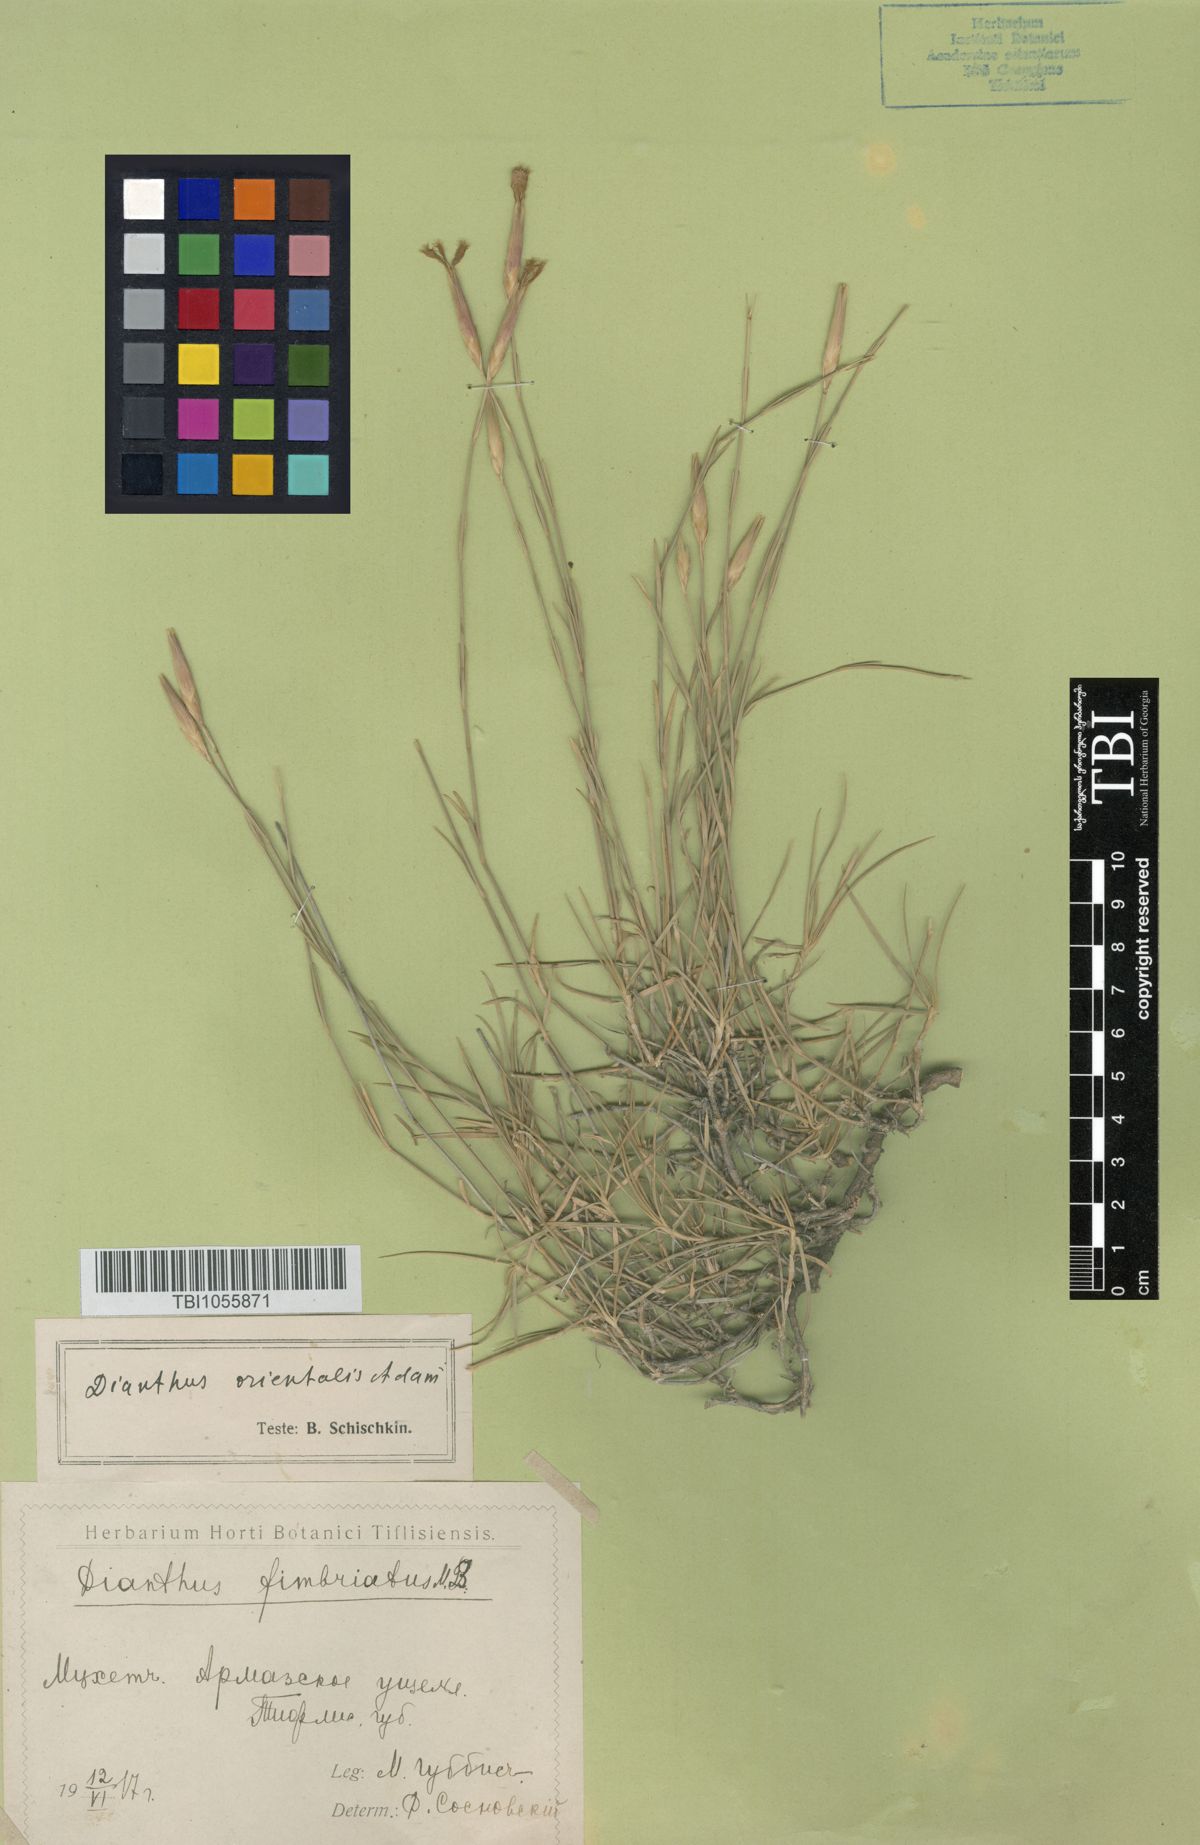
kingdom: Plantae
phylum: Tracheophyta
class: Magnoliopsida
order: Caryophyllales
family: Caryophyllaceae
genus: Dianthus
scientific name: Dianthus orientalis
